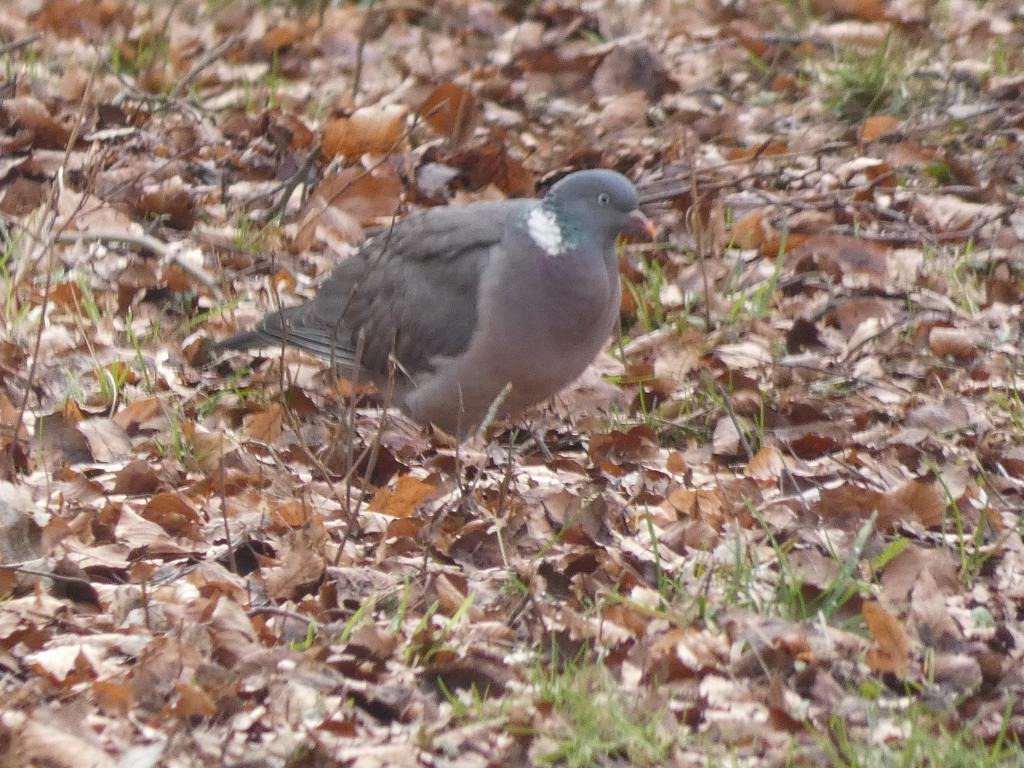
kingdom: Animalia
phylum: Chordata
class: Aves
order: Columbiformes
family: Columbidae
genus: Columba
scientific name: Columba palumbus
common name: Ringdue
